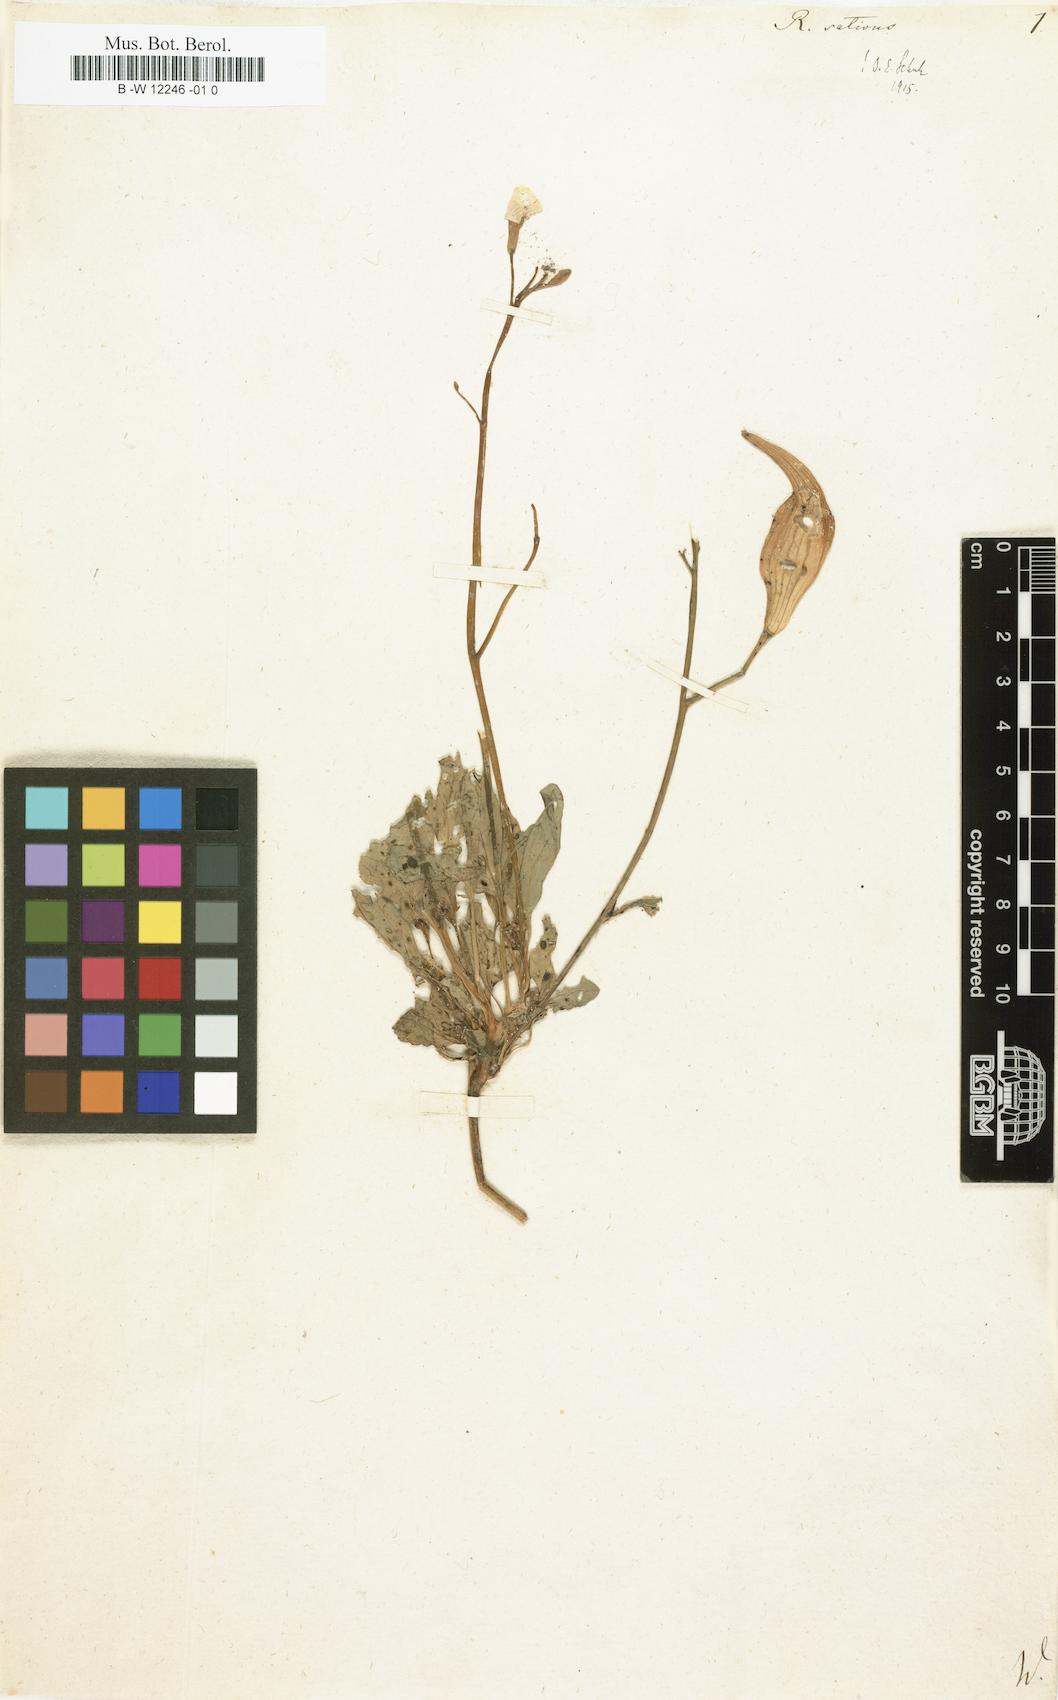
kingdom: Plantae
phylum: Tracheophyta
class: Magnoliopsida
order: Brassicales
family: Brassicaceae
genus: Raphanus
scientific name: Raphanus sativus
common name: Cultivated radish
